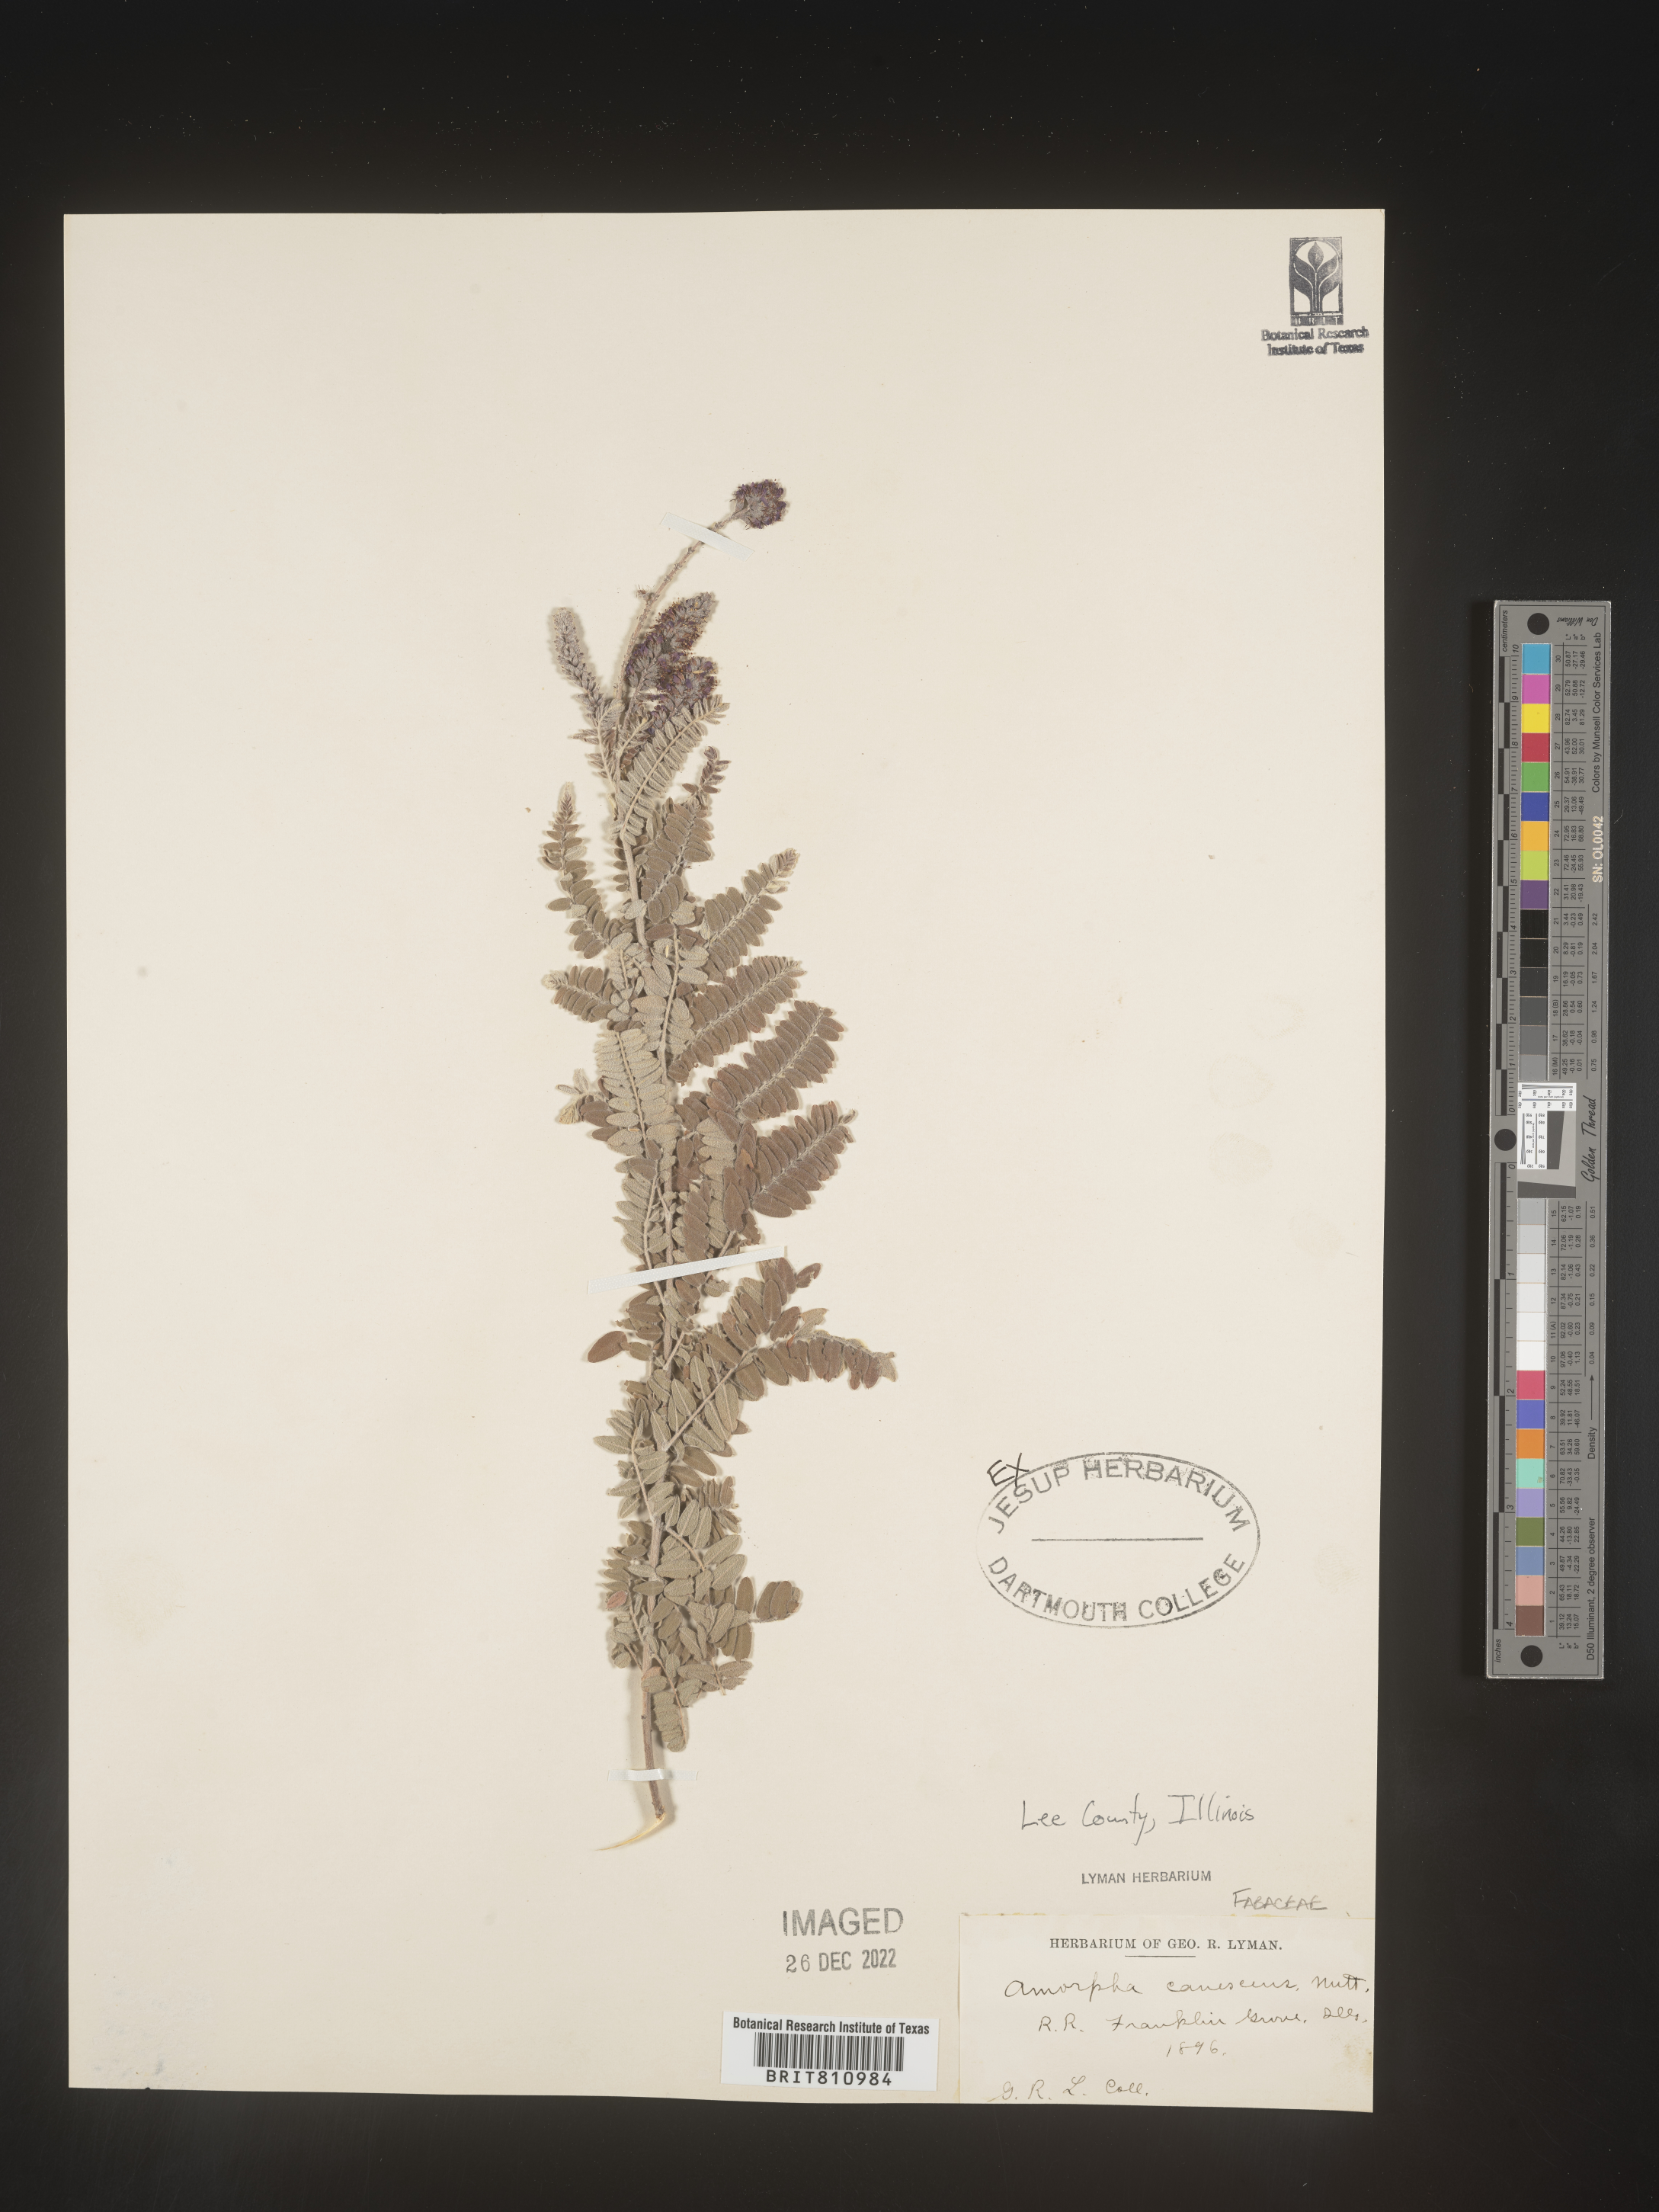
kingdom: Plantae
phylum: Tracheophyta
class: Magnoliopsida
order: Fabales
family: Fabaceae
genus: Amorpha
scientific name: Amorpha canescens
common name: Leadplant
